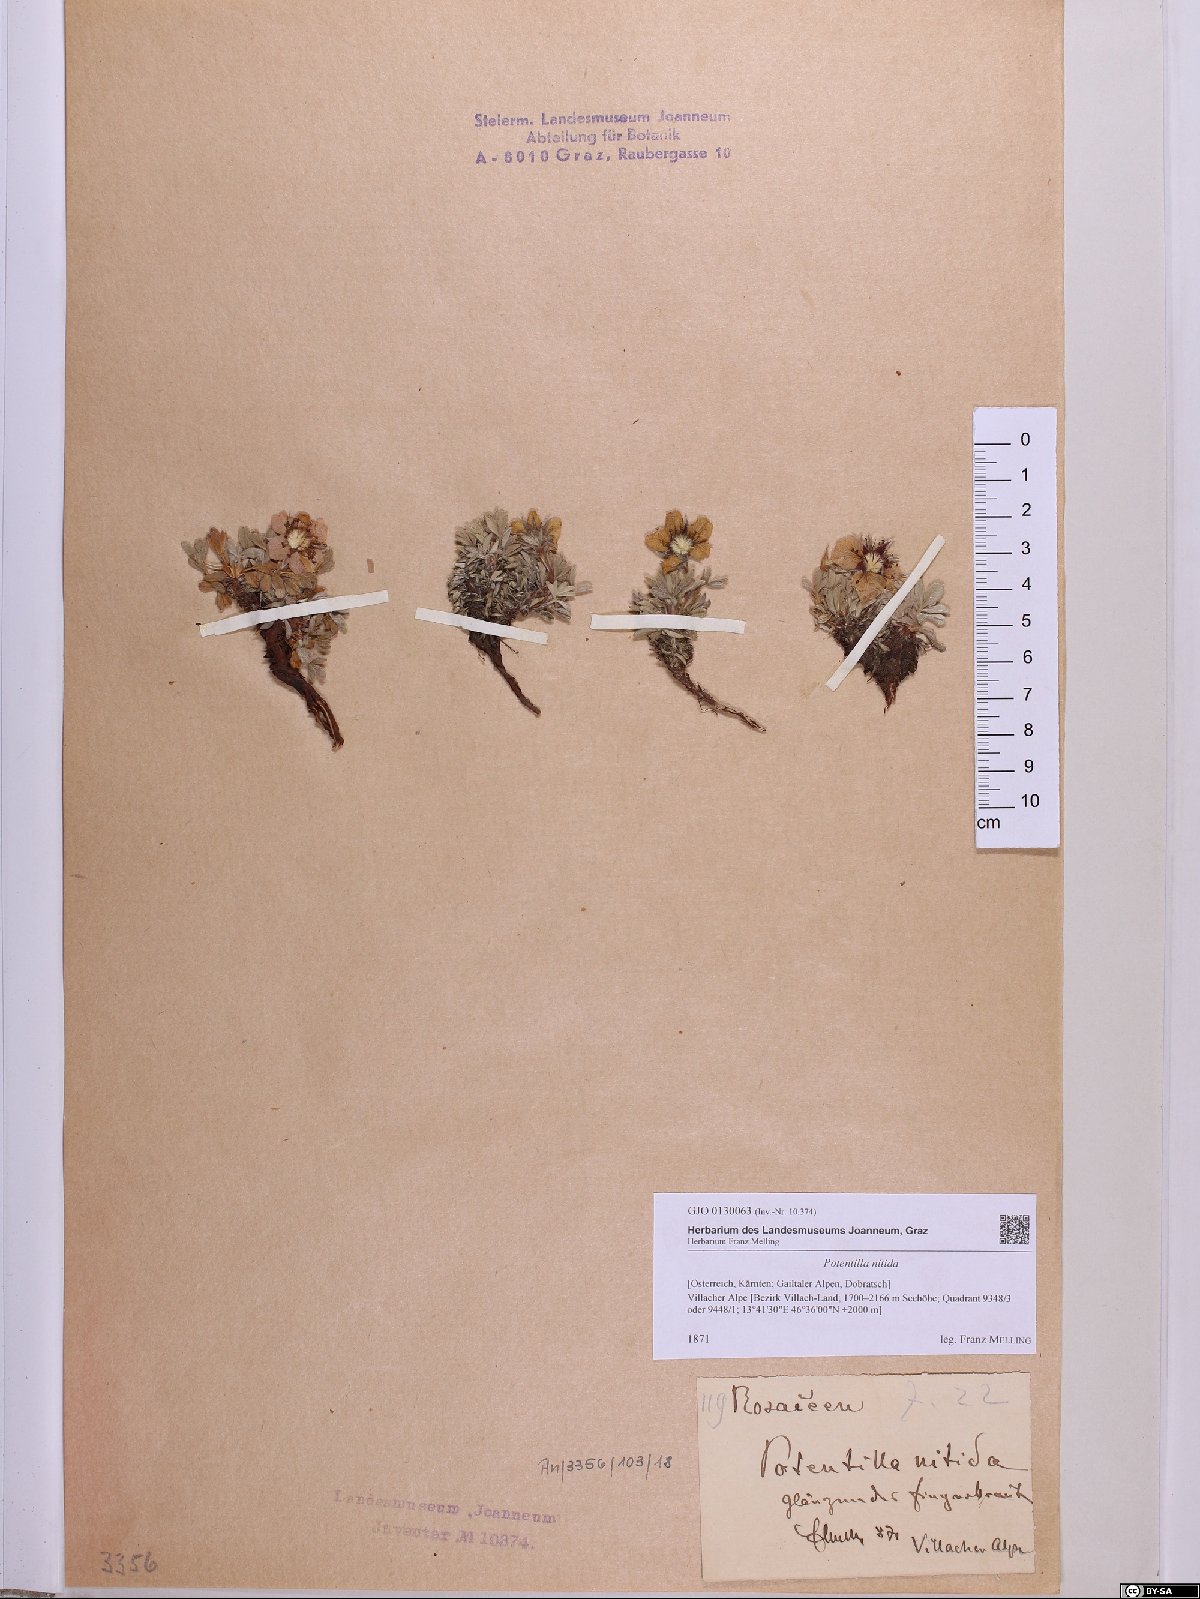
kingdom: Plantae
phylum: Tracheophyta
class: Magnoliopsida
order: Rosales
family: Rosaceae
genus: Potentilla
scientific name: Potentilla nitida
